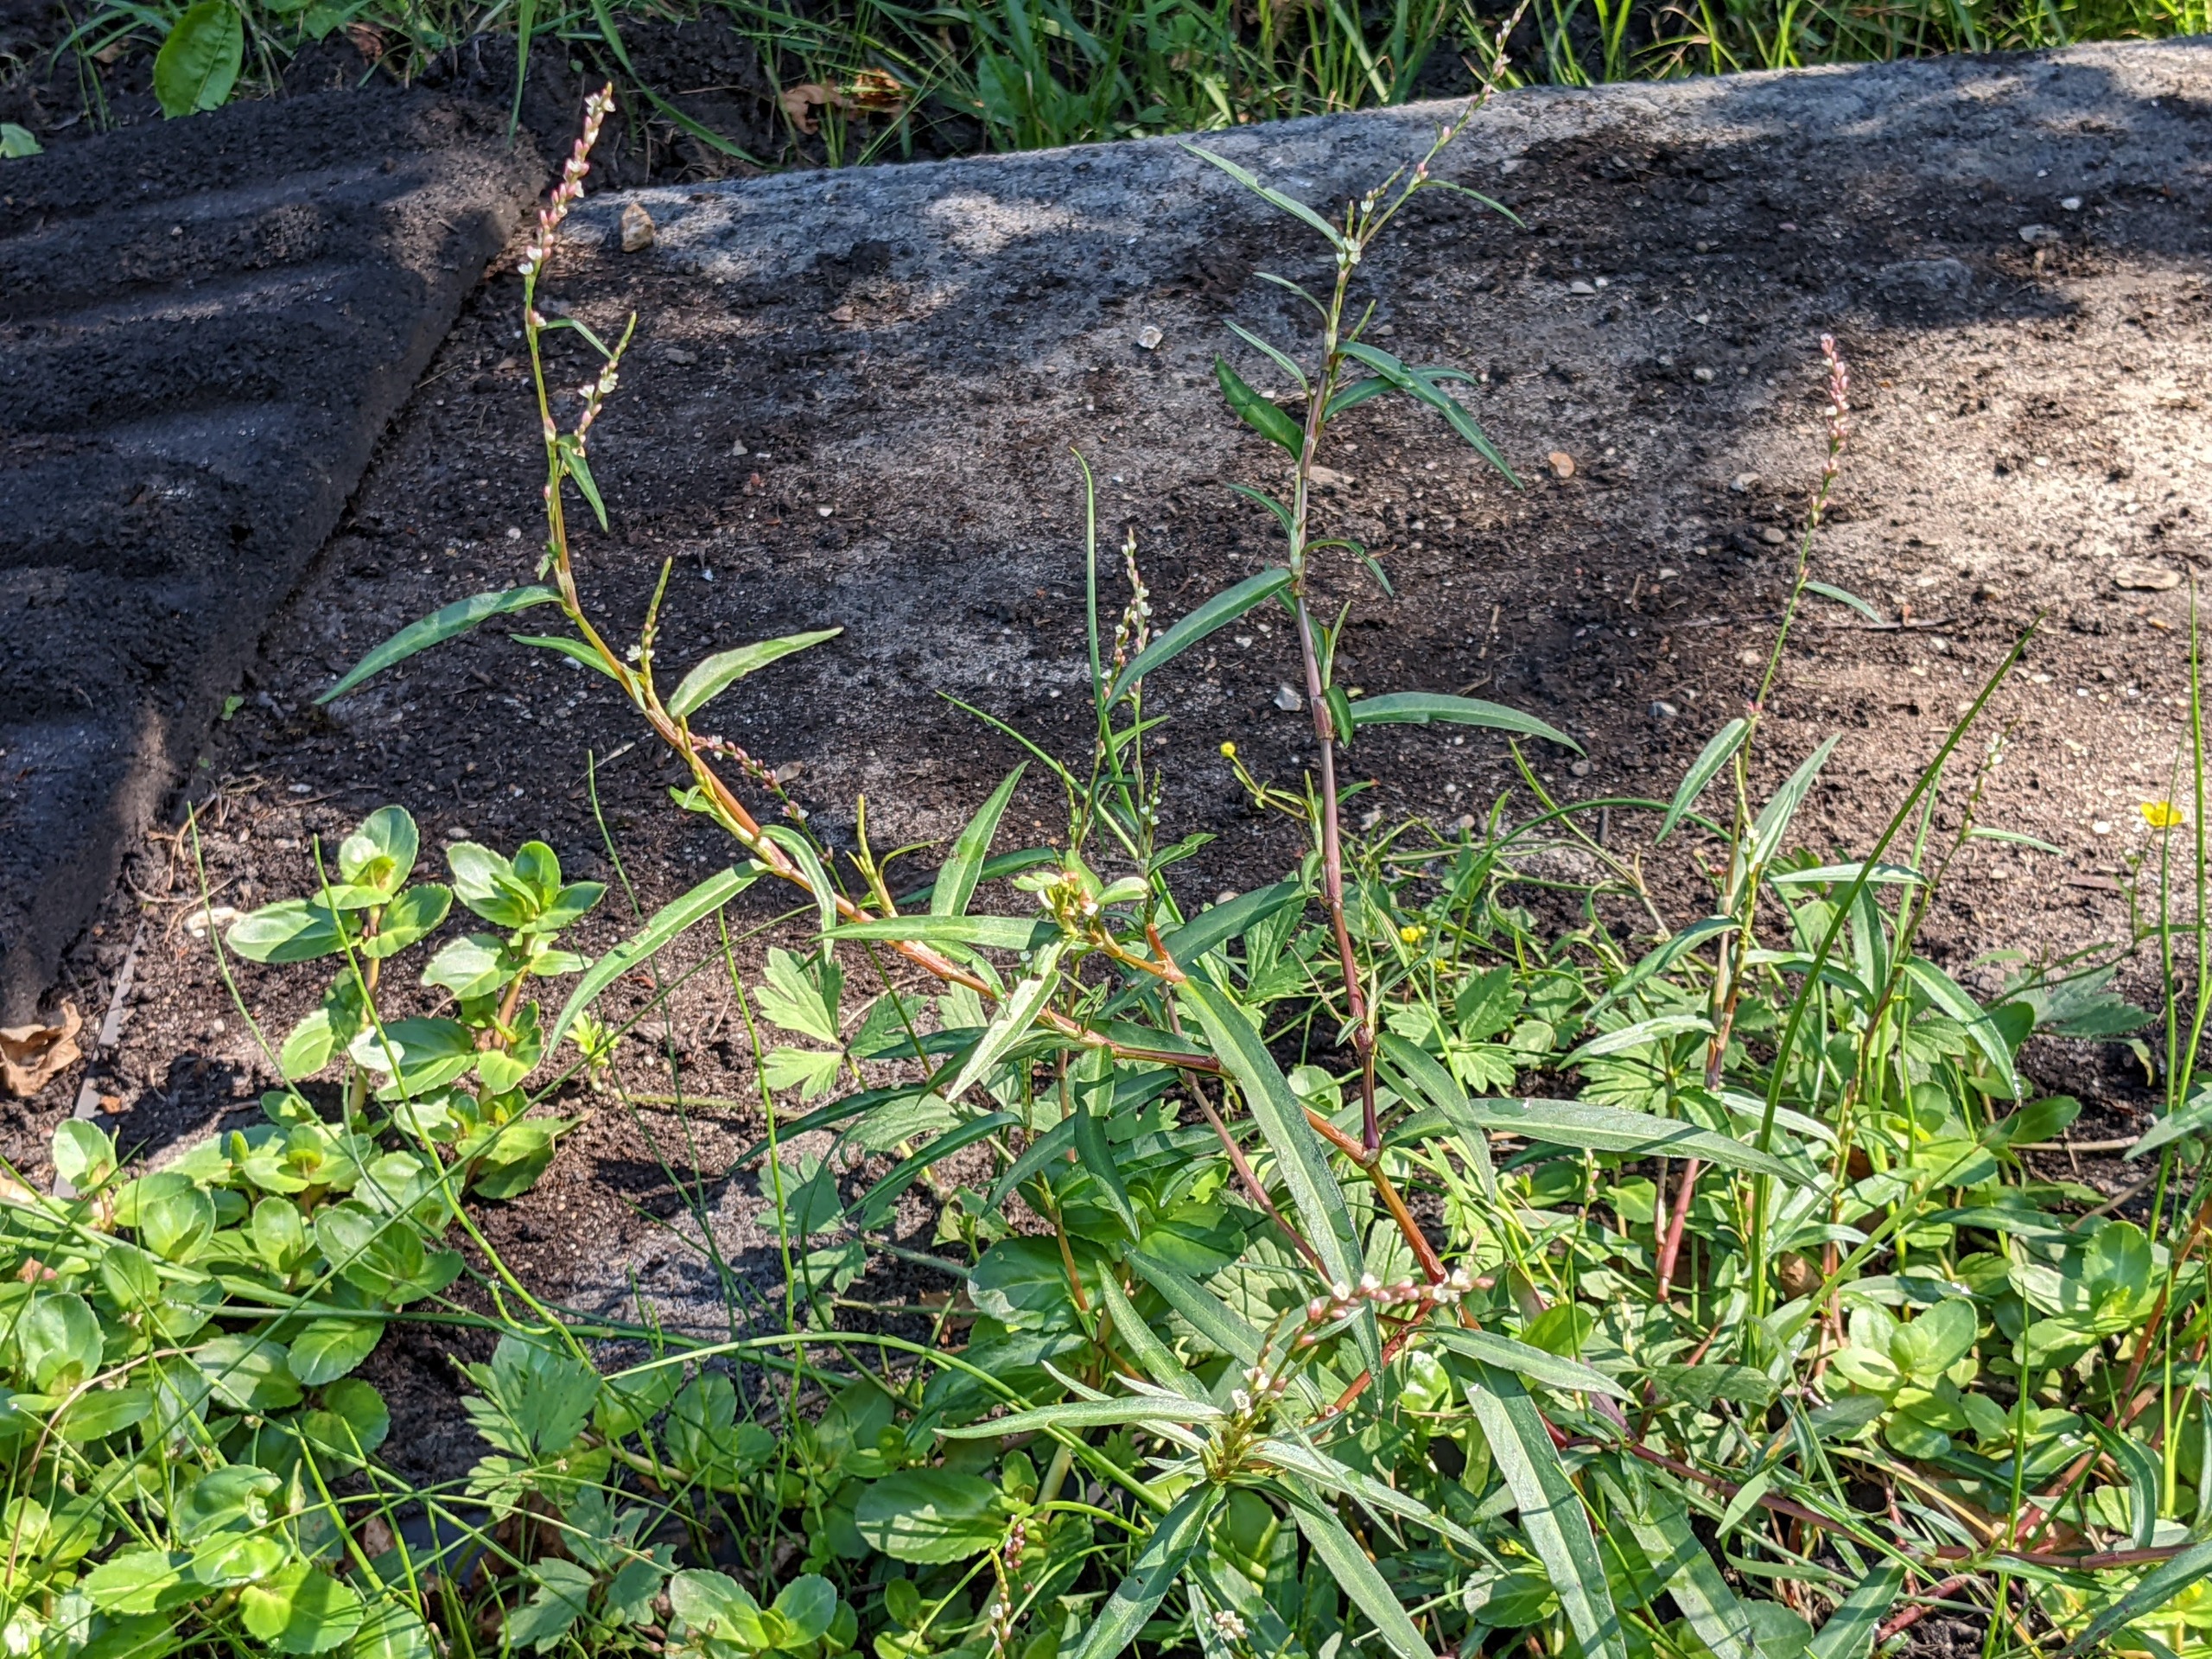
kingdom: Plantae
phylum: Tracheophyta
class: Magnoliopsida
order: Caryophyllales
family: Polygonaceae
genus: Persicaria
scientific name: Persicaria minor
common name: Liden pileurt
